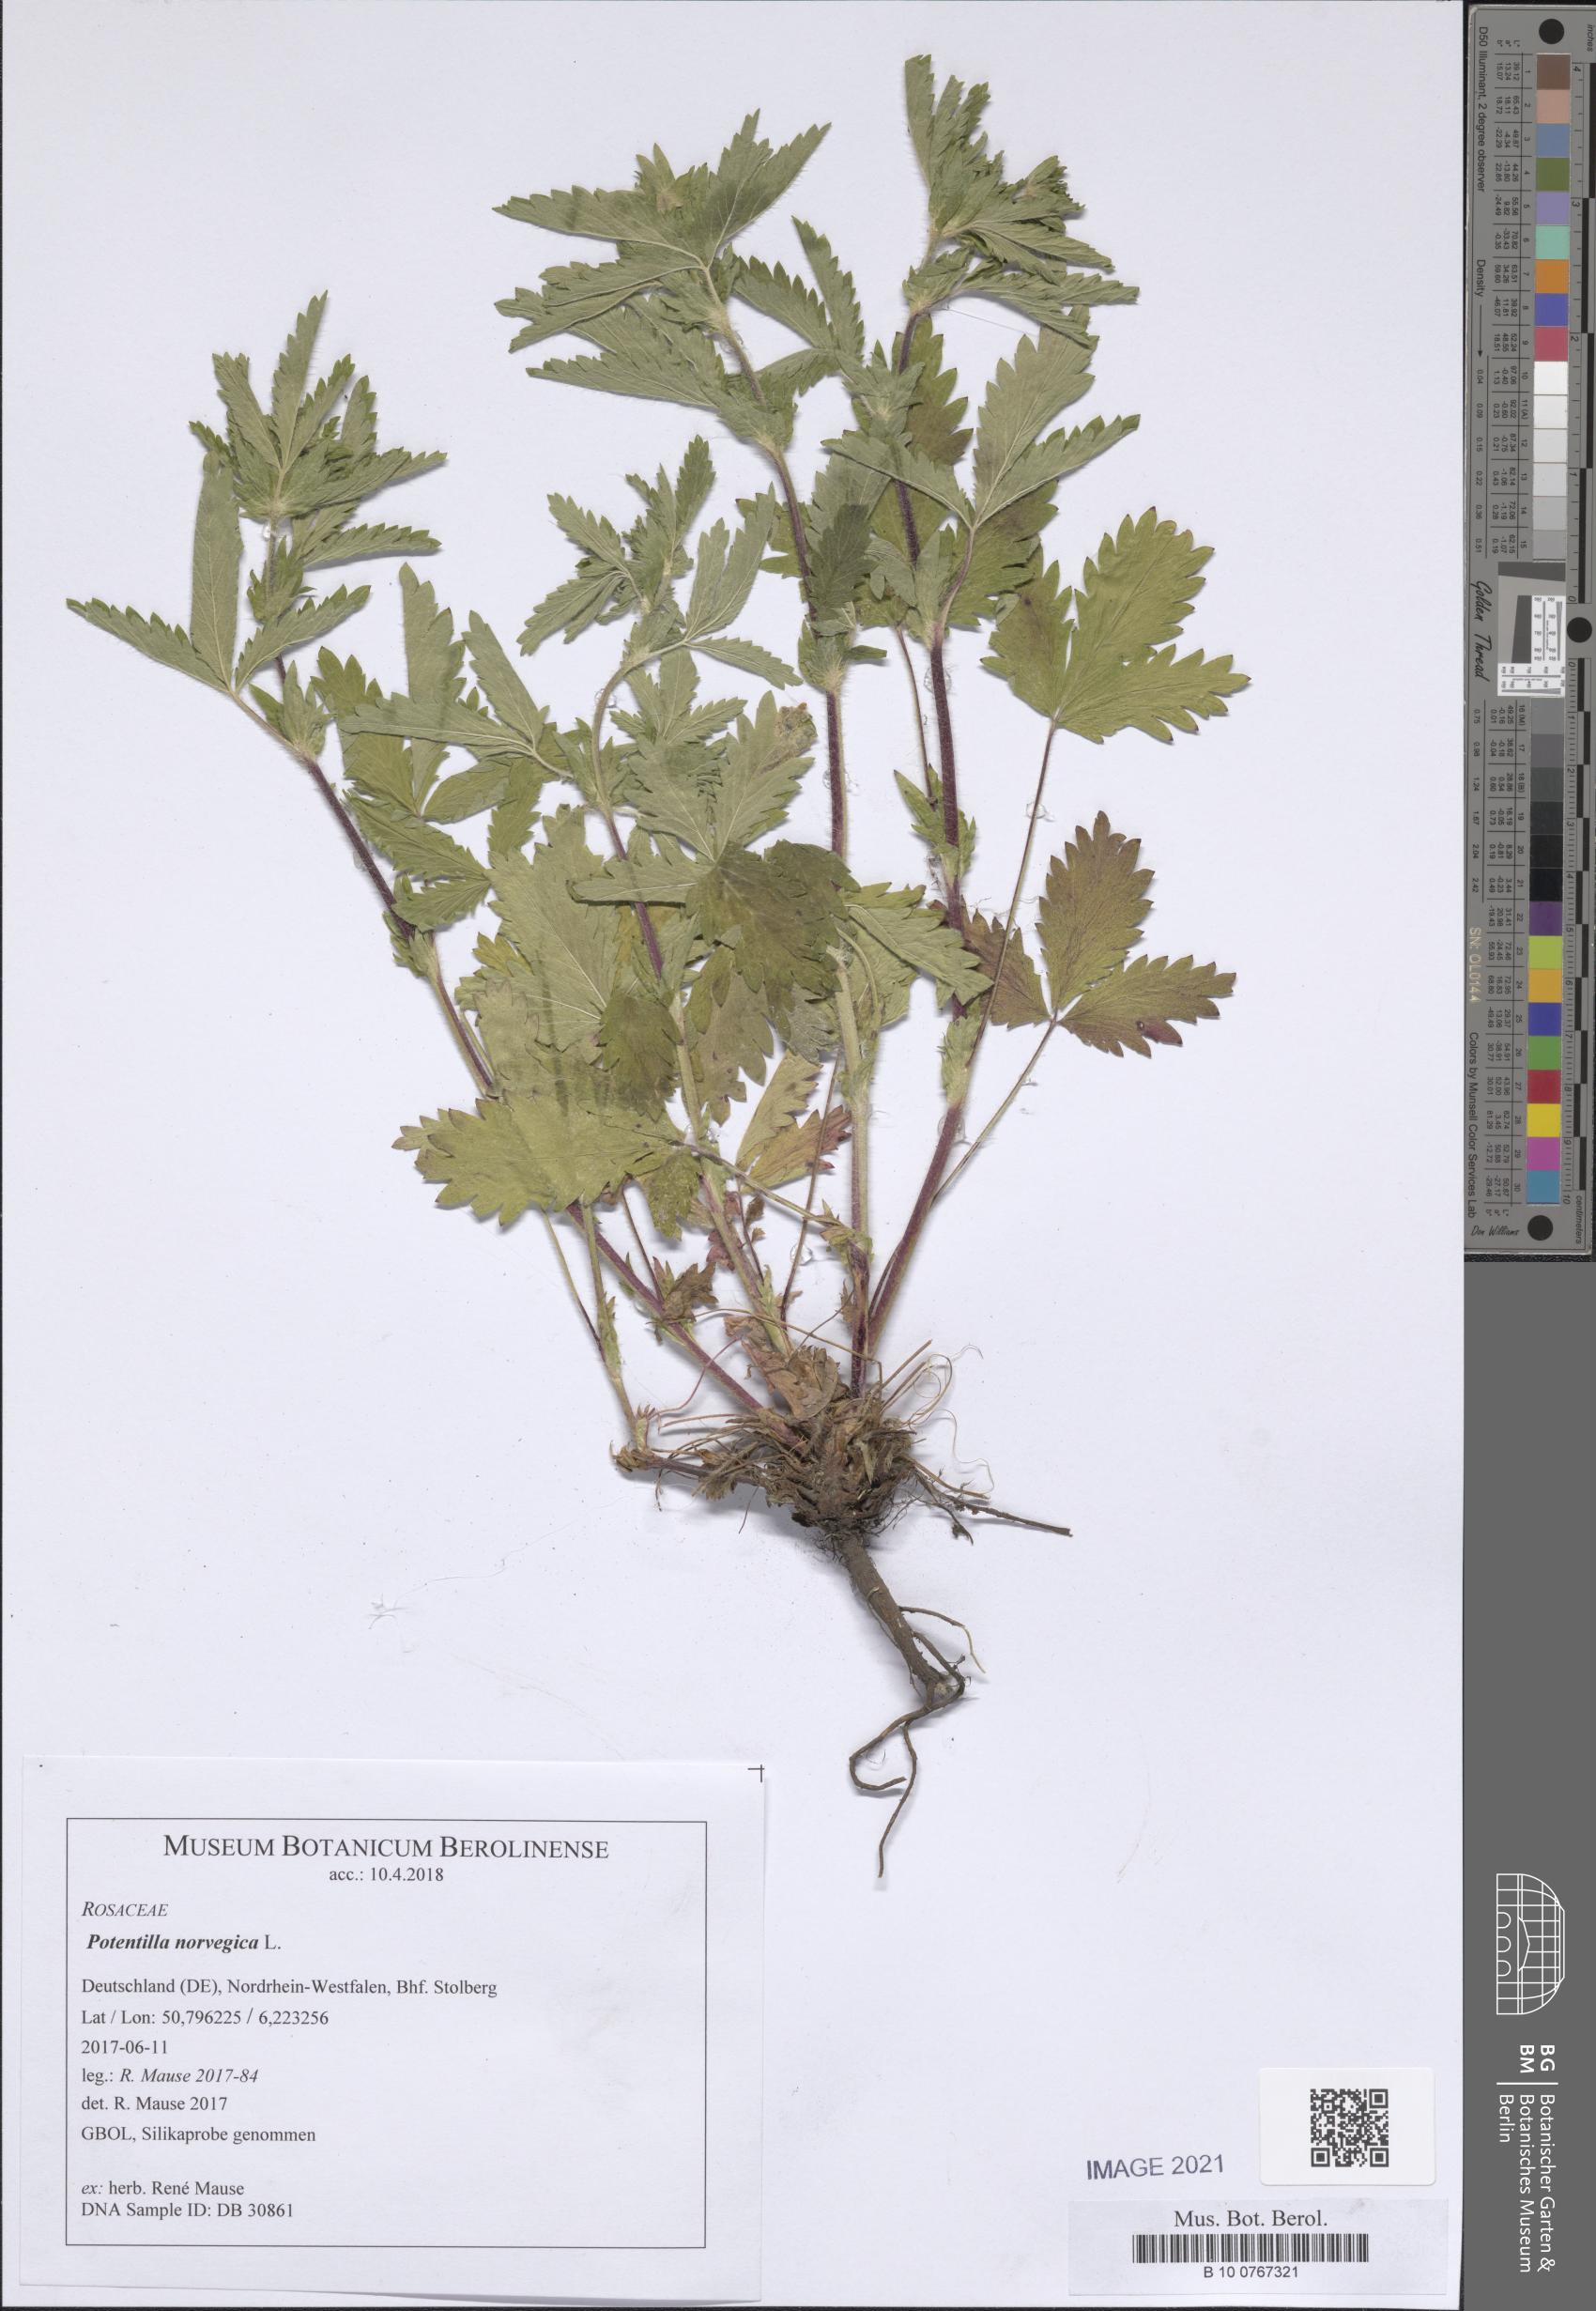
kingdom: Plantae
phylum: Tracheophyta
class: Magnoliopsida
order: Rosales
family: Rosaceae
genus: Potentilla
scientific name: Potentilla norvegica
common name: Ternate-leaved cinquefoil
